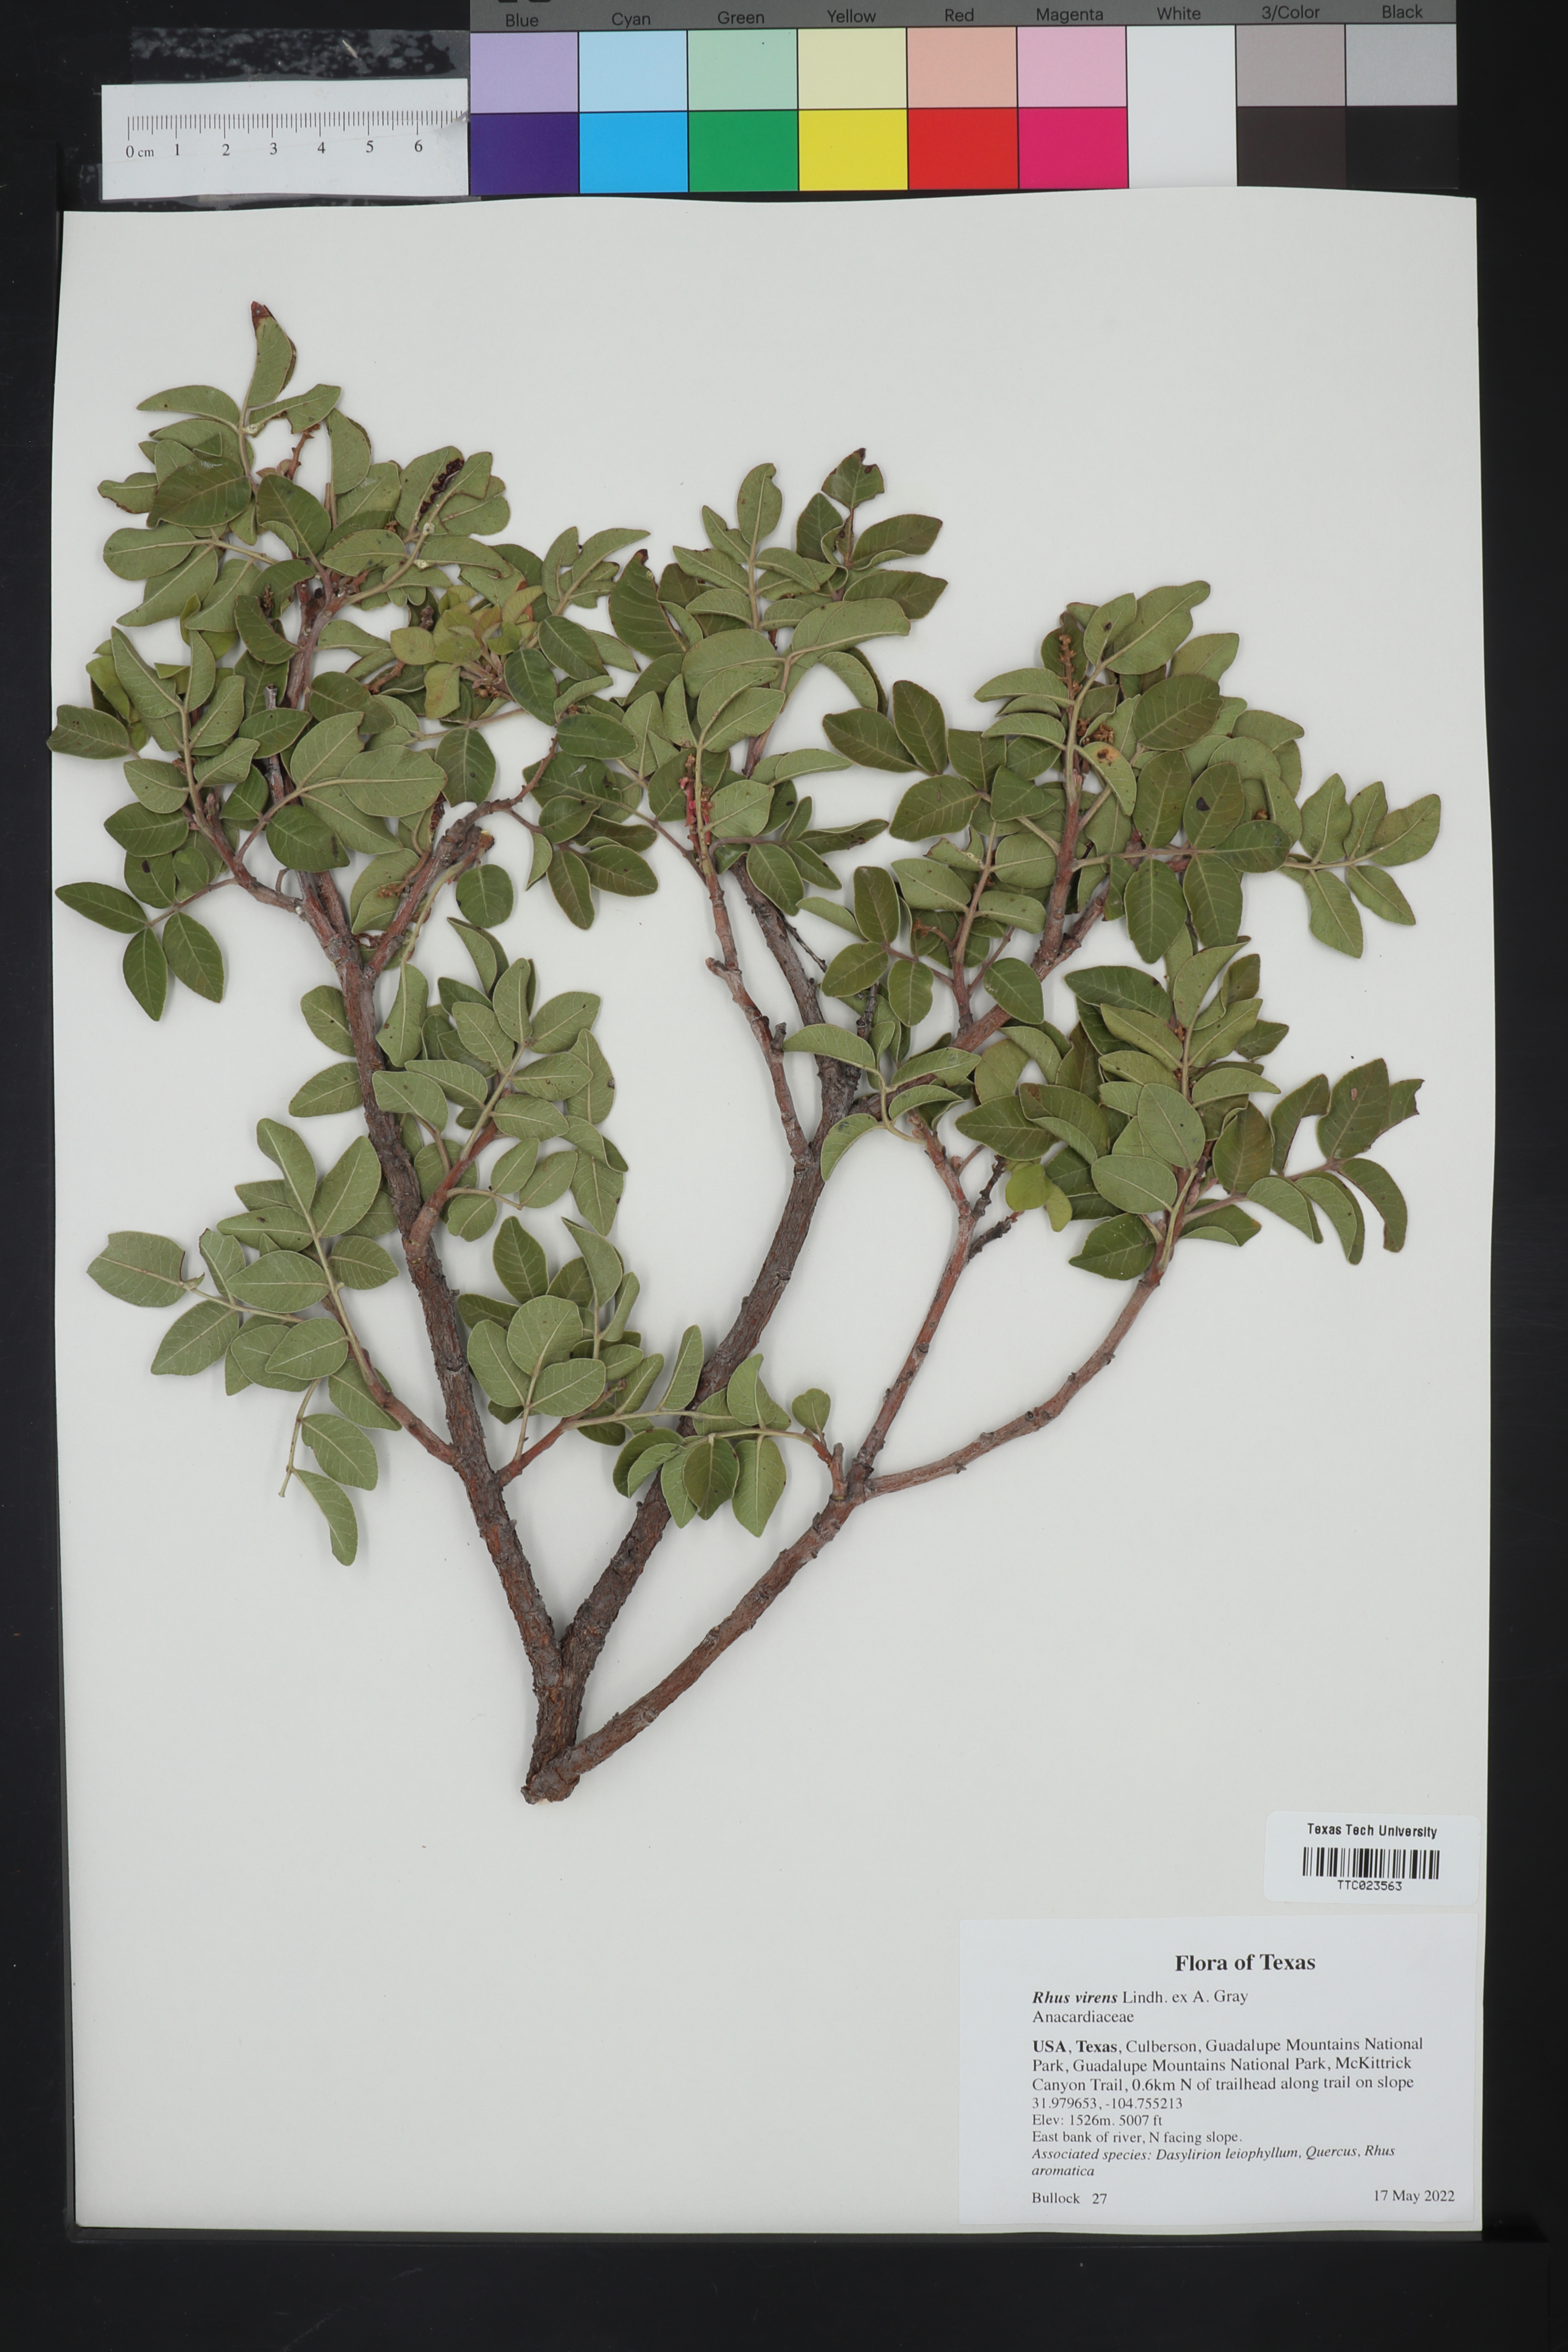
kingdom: Plantae
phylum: Tracheophyta
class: Magnoliopsida
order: Sapindales
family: Anacardiaceae
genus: Rhus
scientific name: Rhus virens
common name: Evergreen sumac
